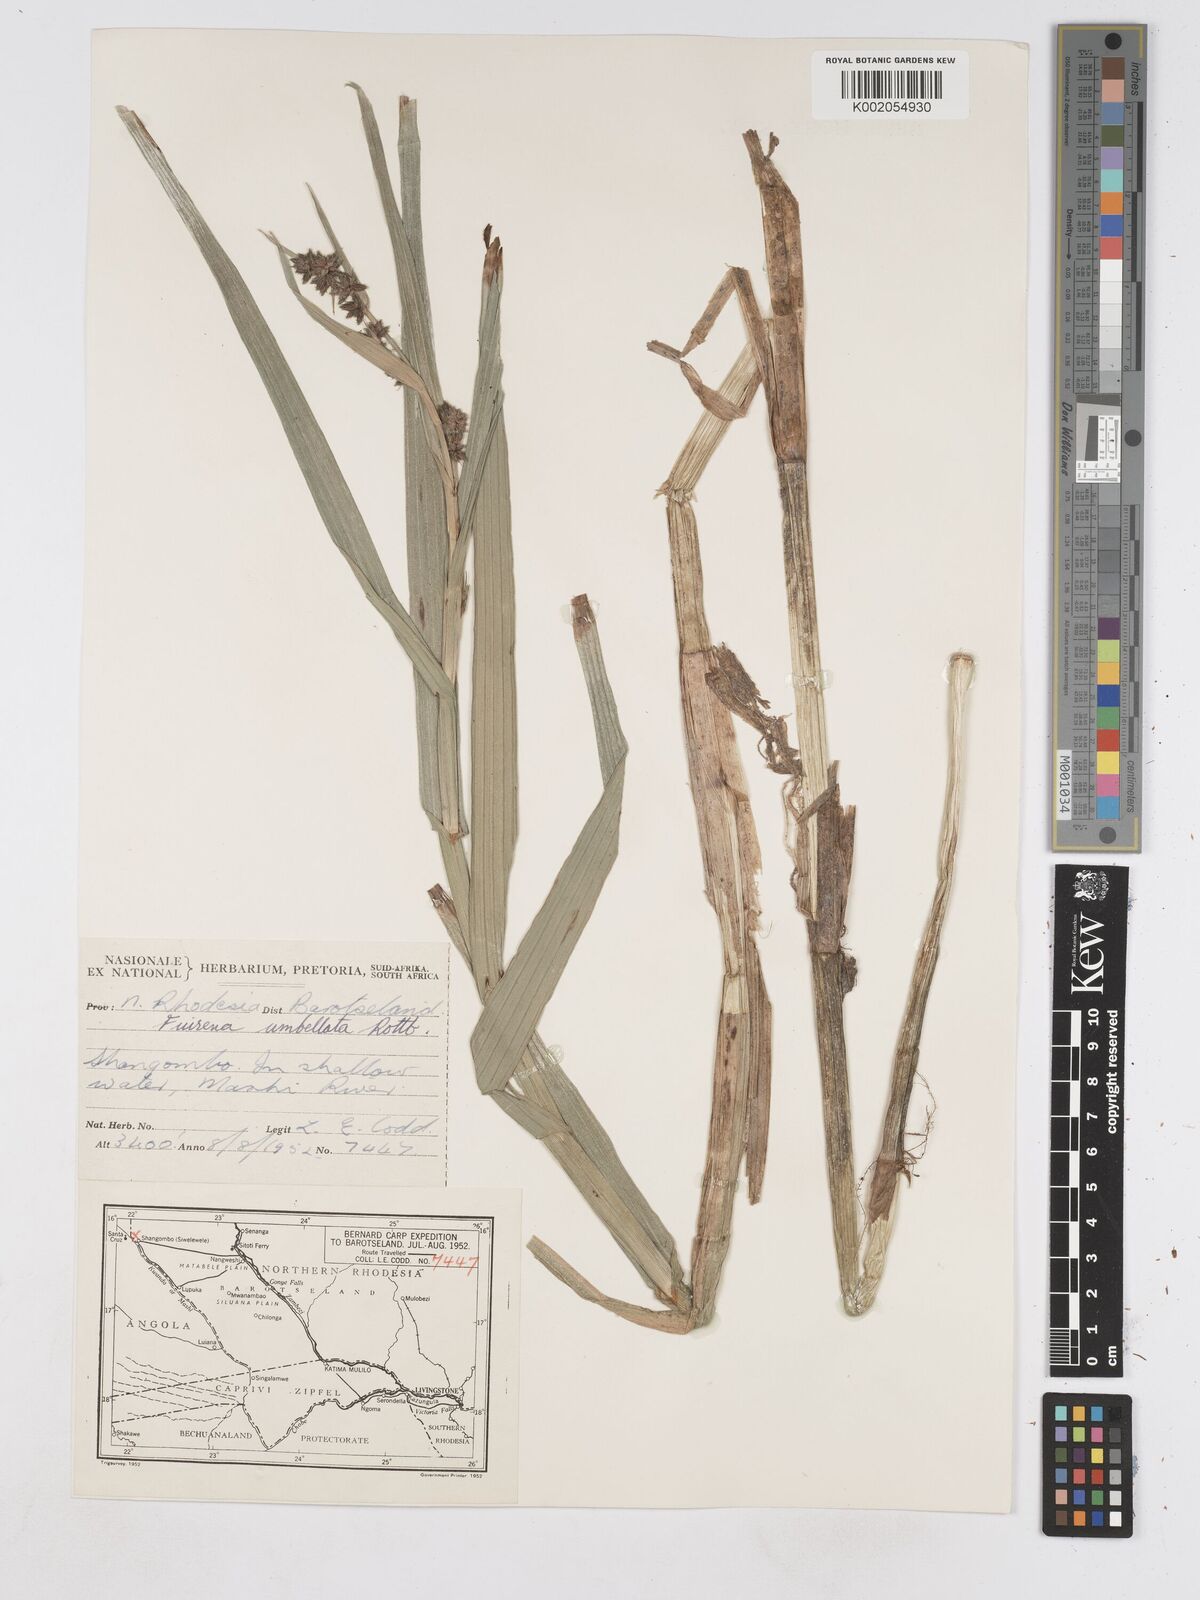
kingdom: Plantae
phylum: Tracheophyta
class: Liliopsida
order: Poales
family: Cyperaceae
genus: Fuirena
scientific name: Fuirena umbellata
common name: Yefen
